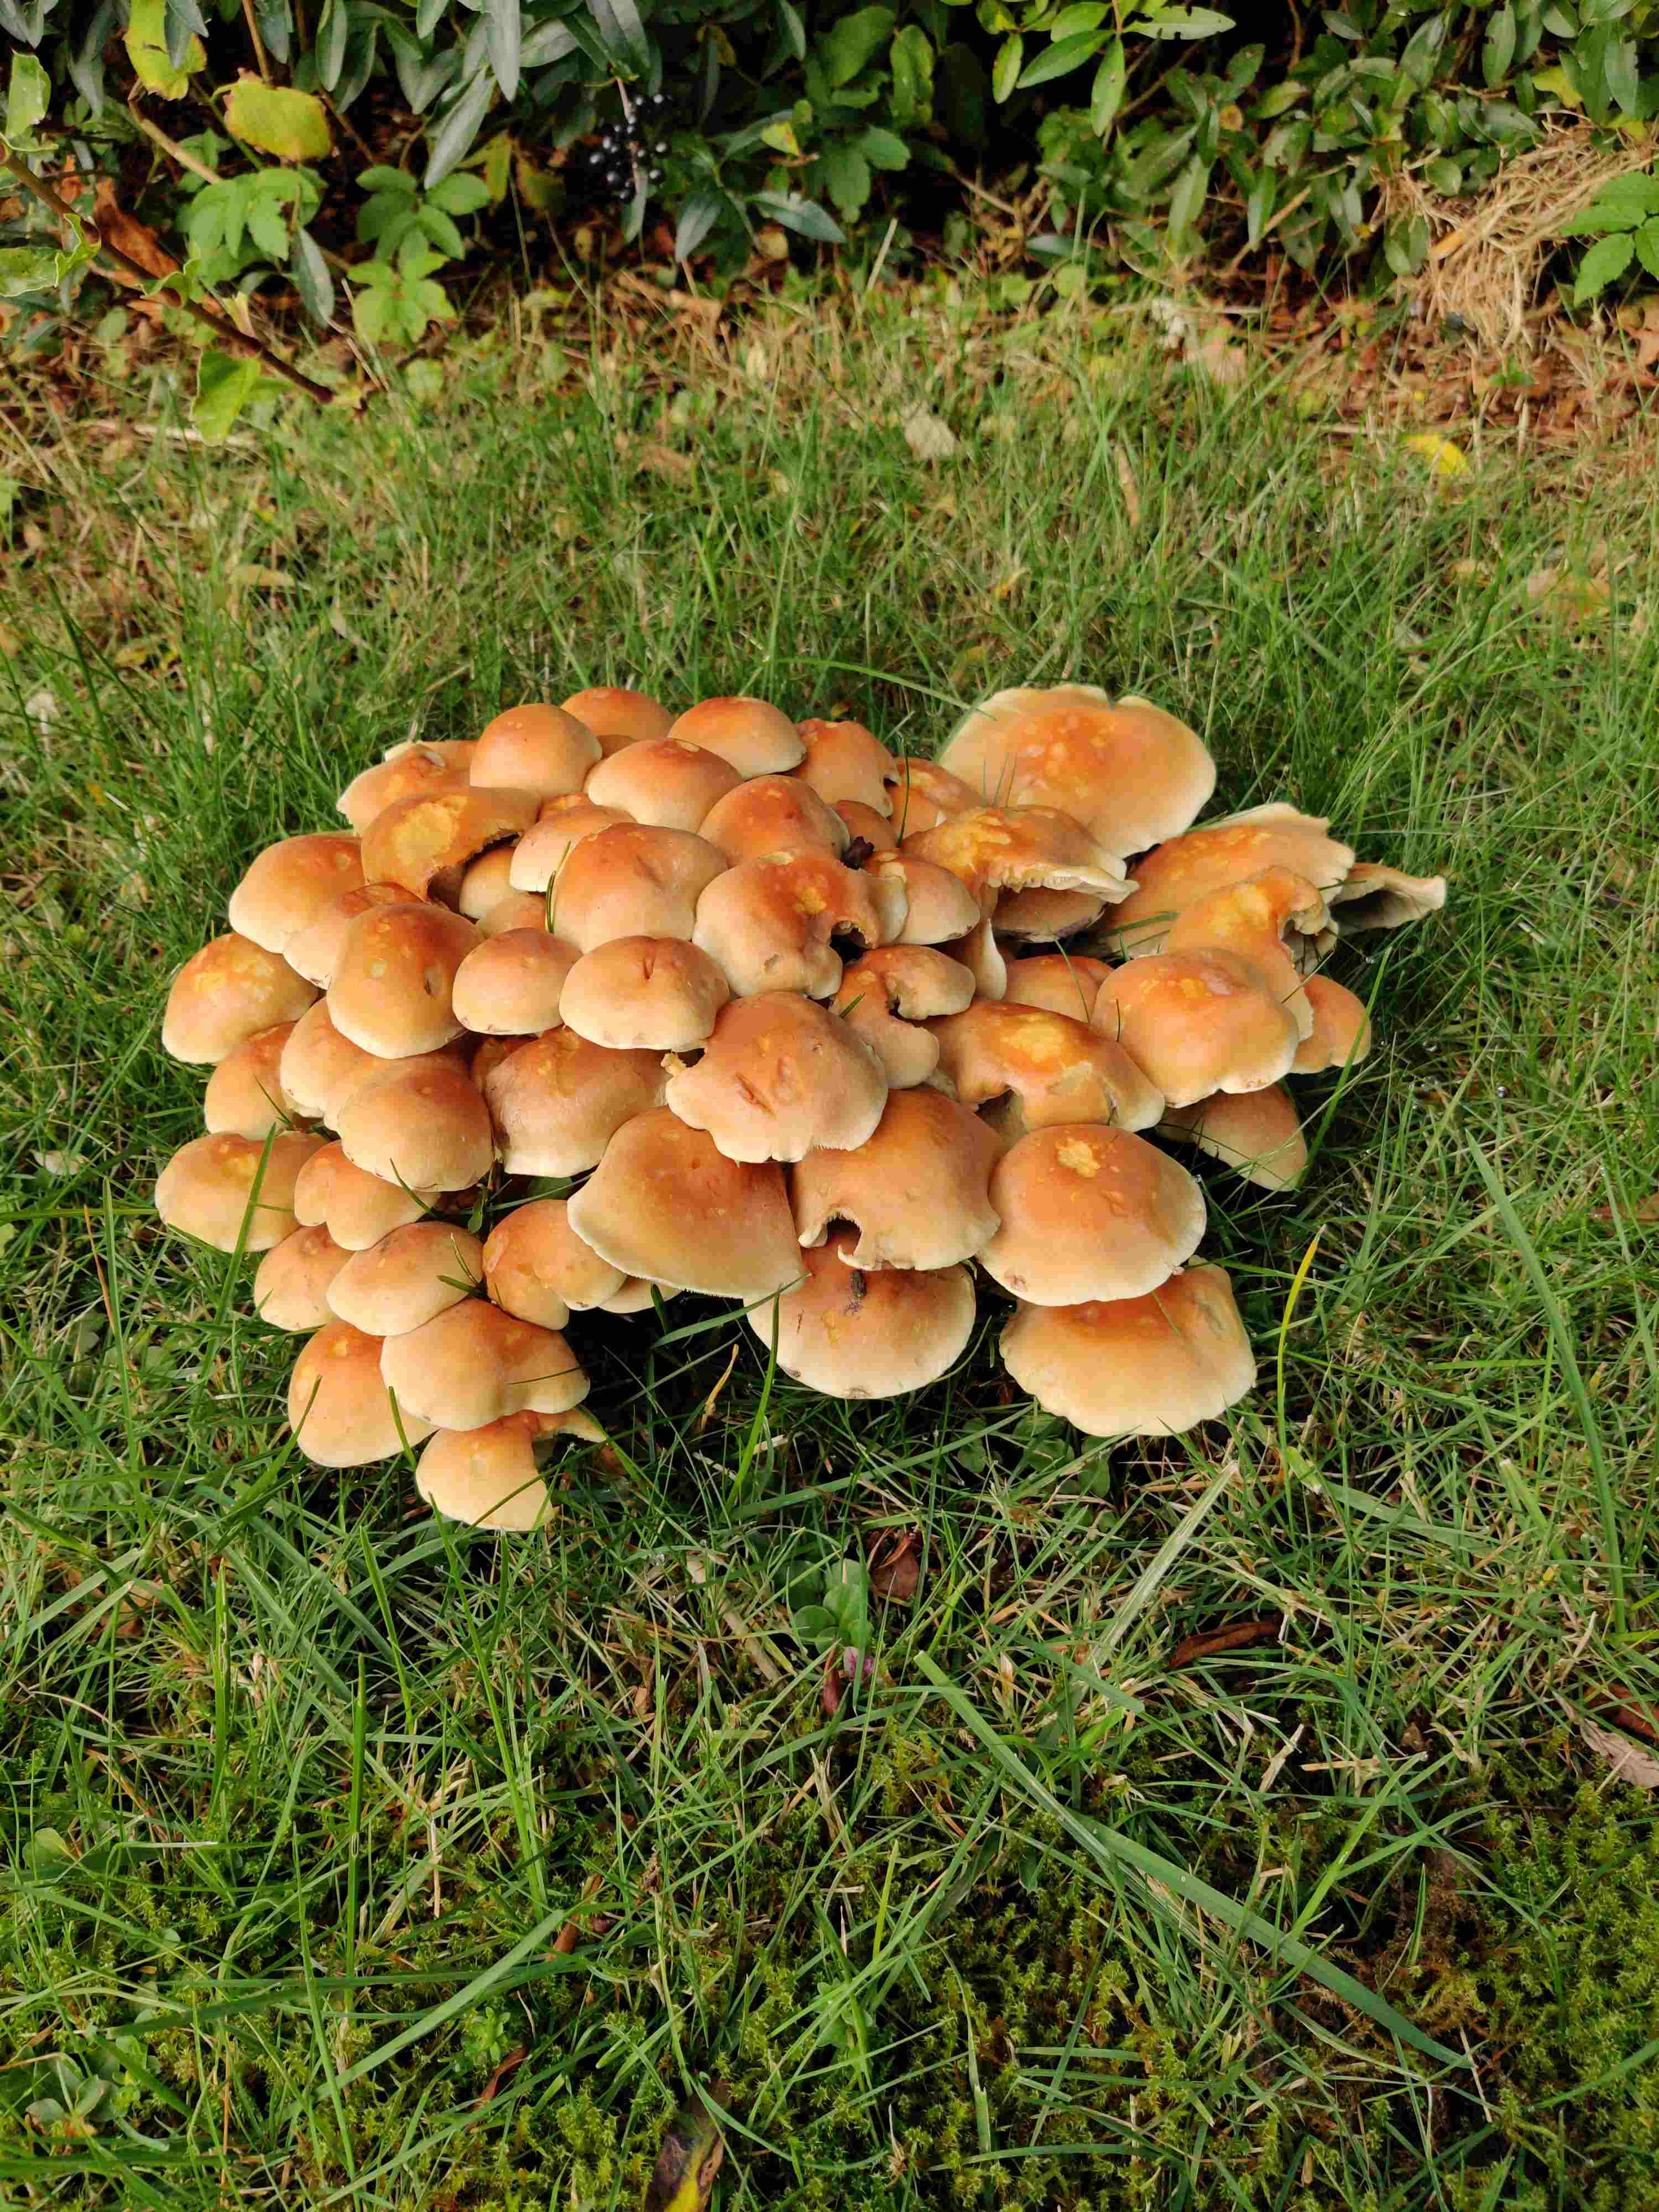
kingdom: Fungi
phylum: Basidiomycota
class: Agaricomycetes
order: Agaricales
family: Strophariaceae
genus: Hypholoma
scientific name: Hypholoma fasciculare
